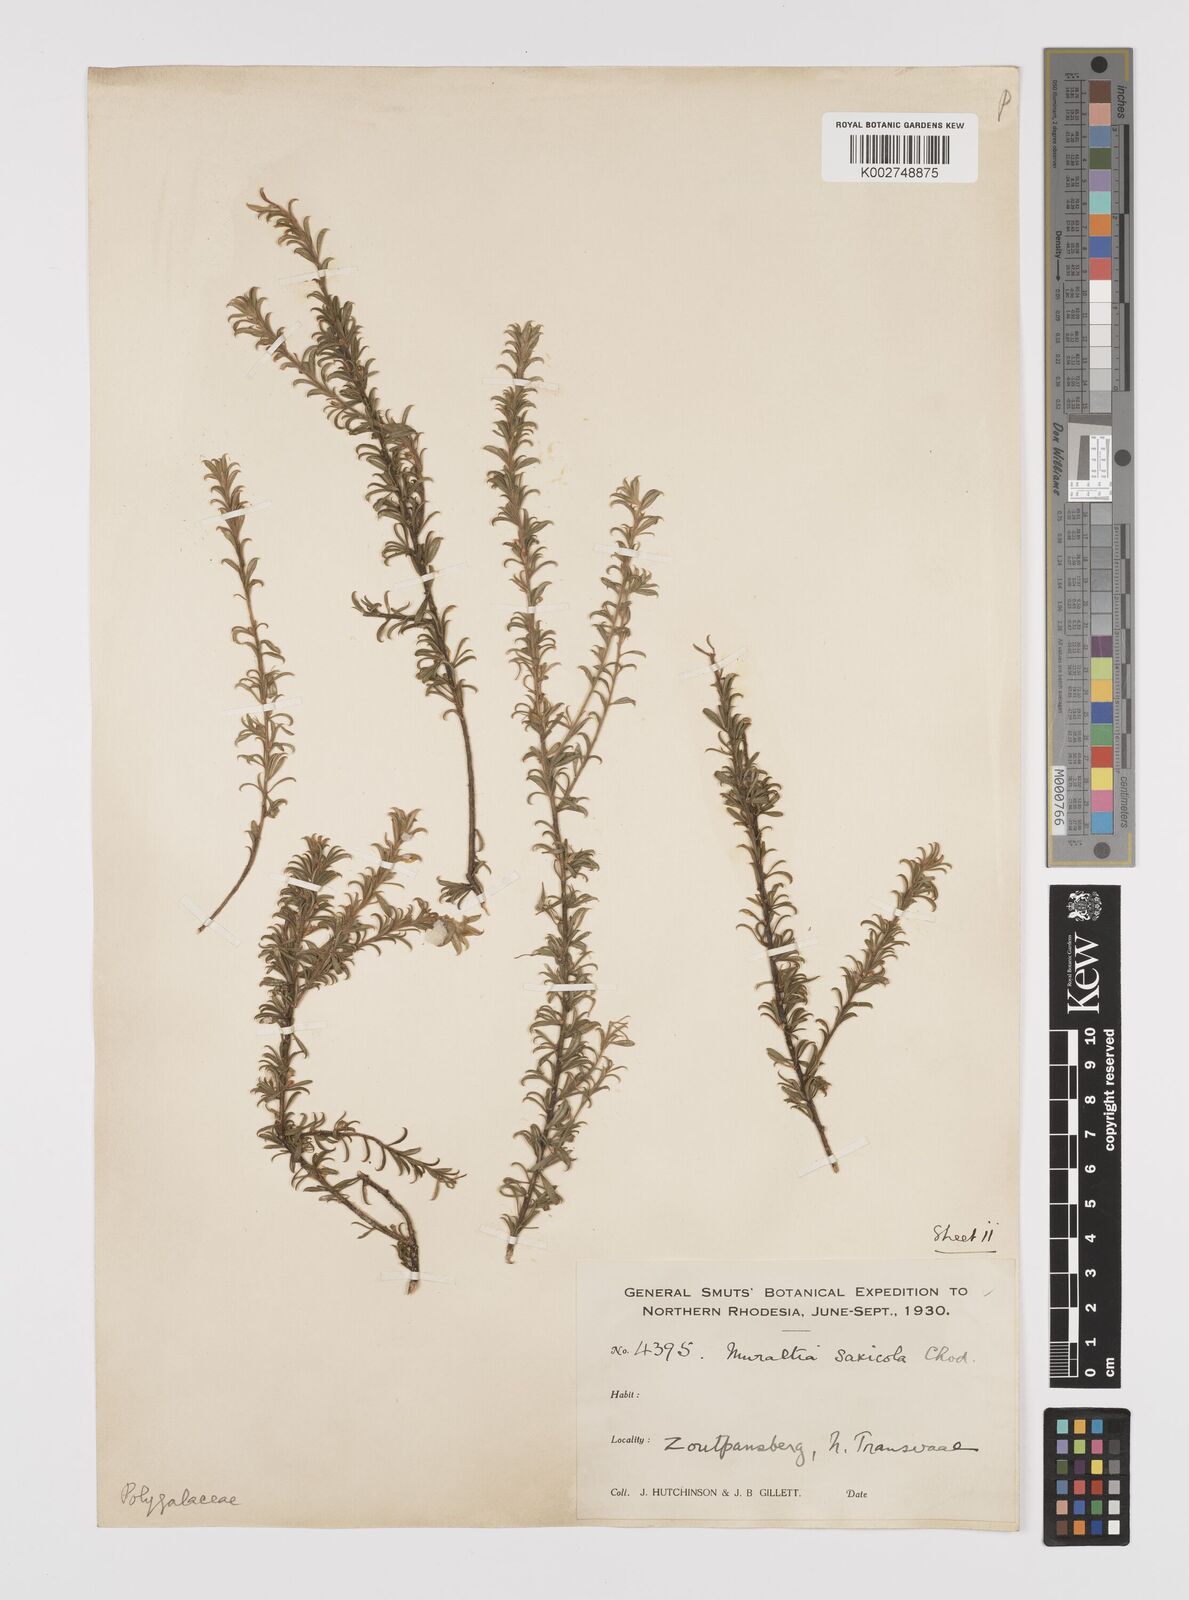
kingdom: Plantae
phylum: Tracheophyta
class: Magnoliopsida
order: Fabales
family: Polygalaceae
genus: Muraltia
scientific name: Muraltia saxicola
